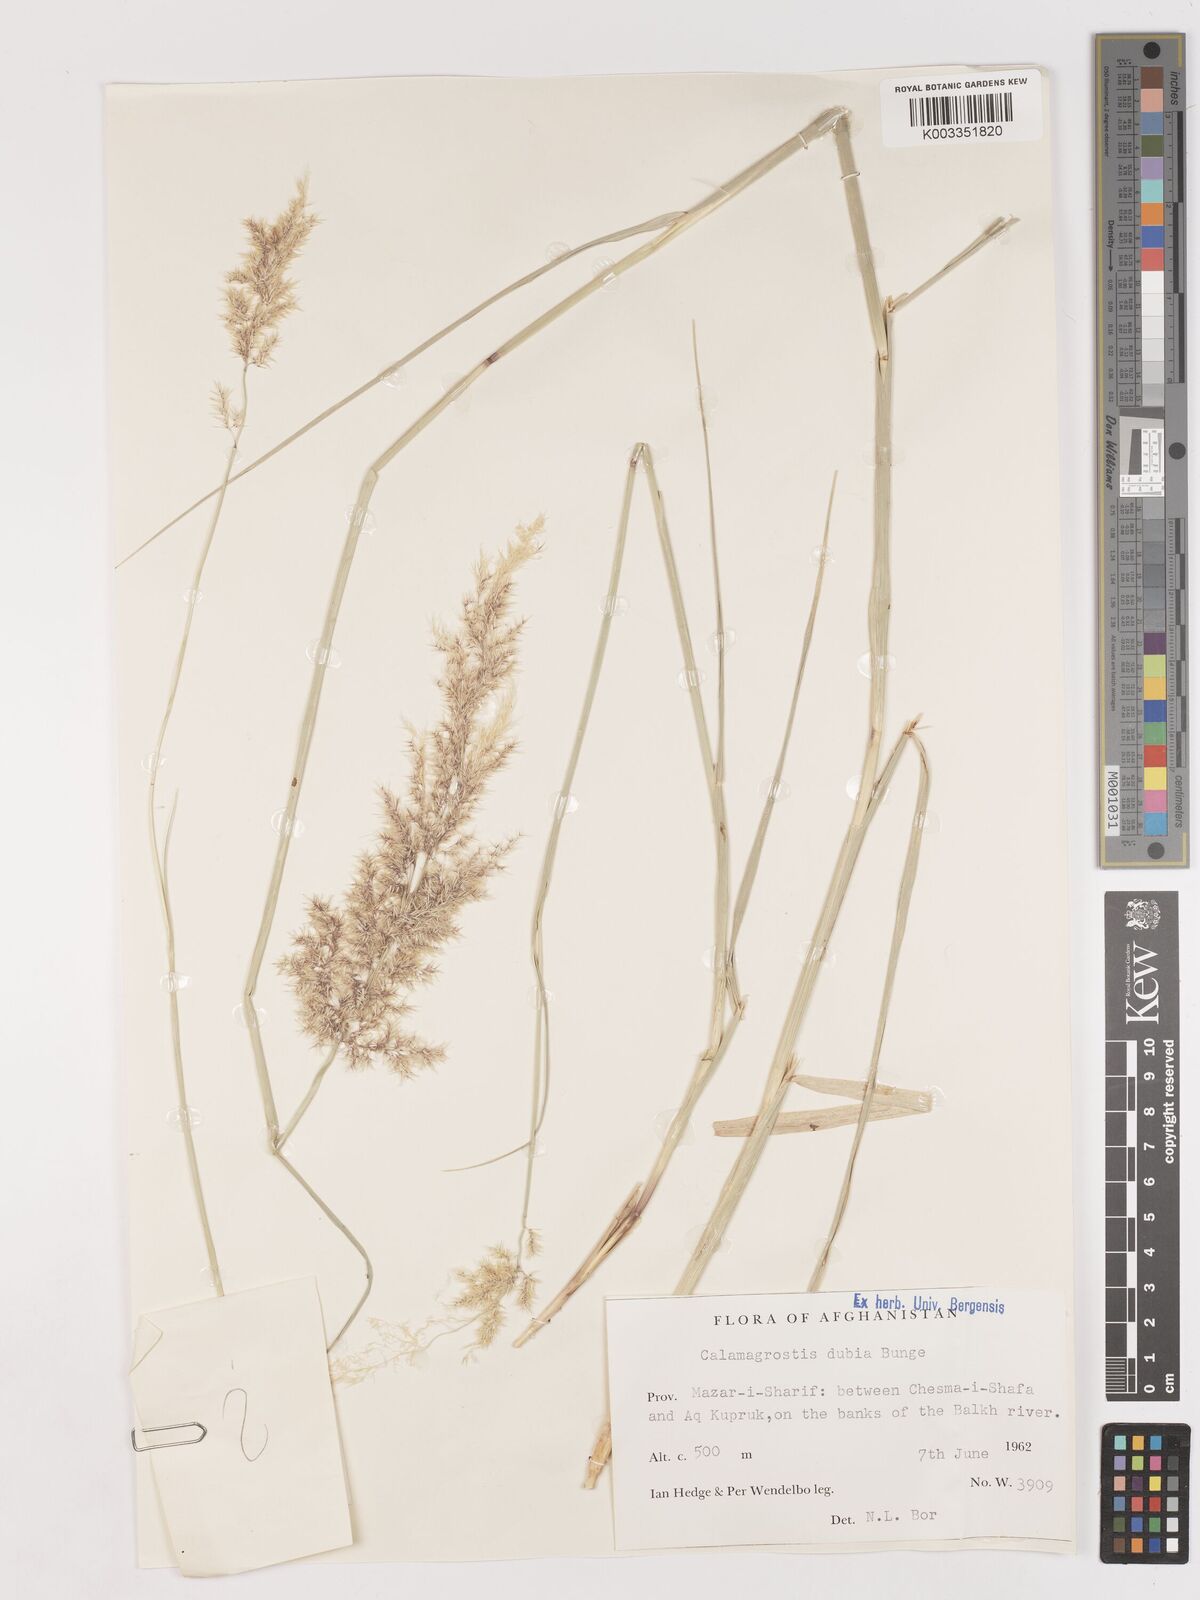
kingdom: Plantae
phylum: Tracheophyta
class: Liliopsida
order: Poales
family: Poaceae
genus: Calamagrostis
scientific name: Calamagrostis pseudophragmites
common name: Coastal small-reed
